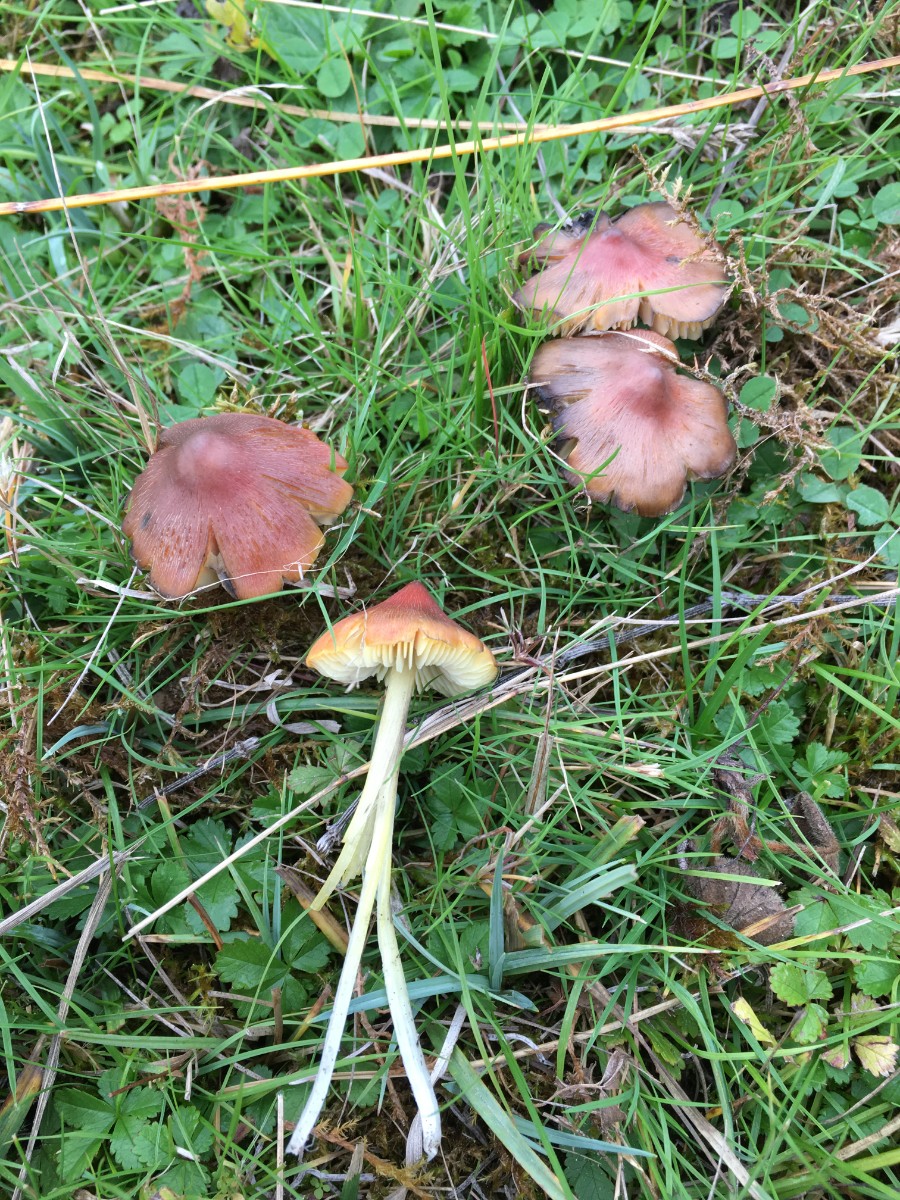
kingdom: Fungi
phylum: Basidiomycota
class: Agaricomycetes
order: Agaricales
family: Hygrophoraceae
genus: Hygrocybe
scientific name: Hygrocybe conica
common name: kegle-vokshat
